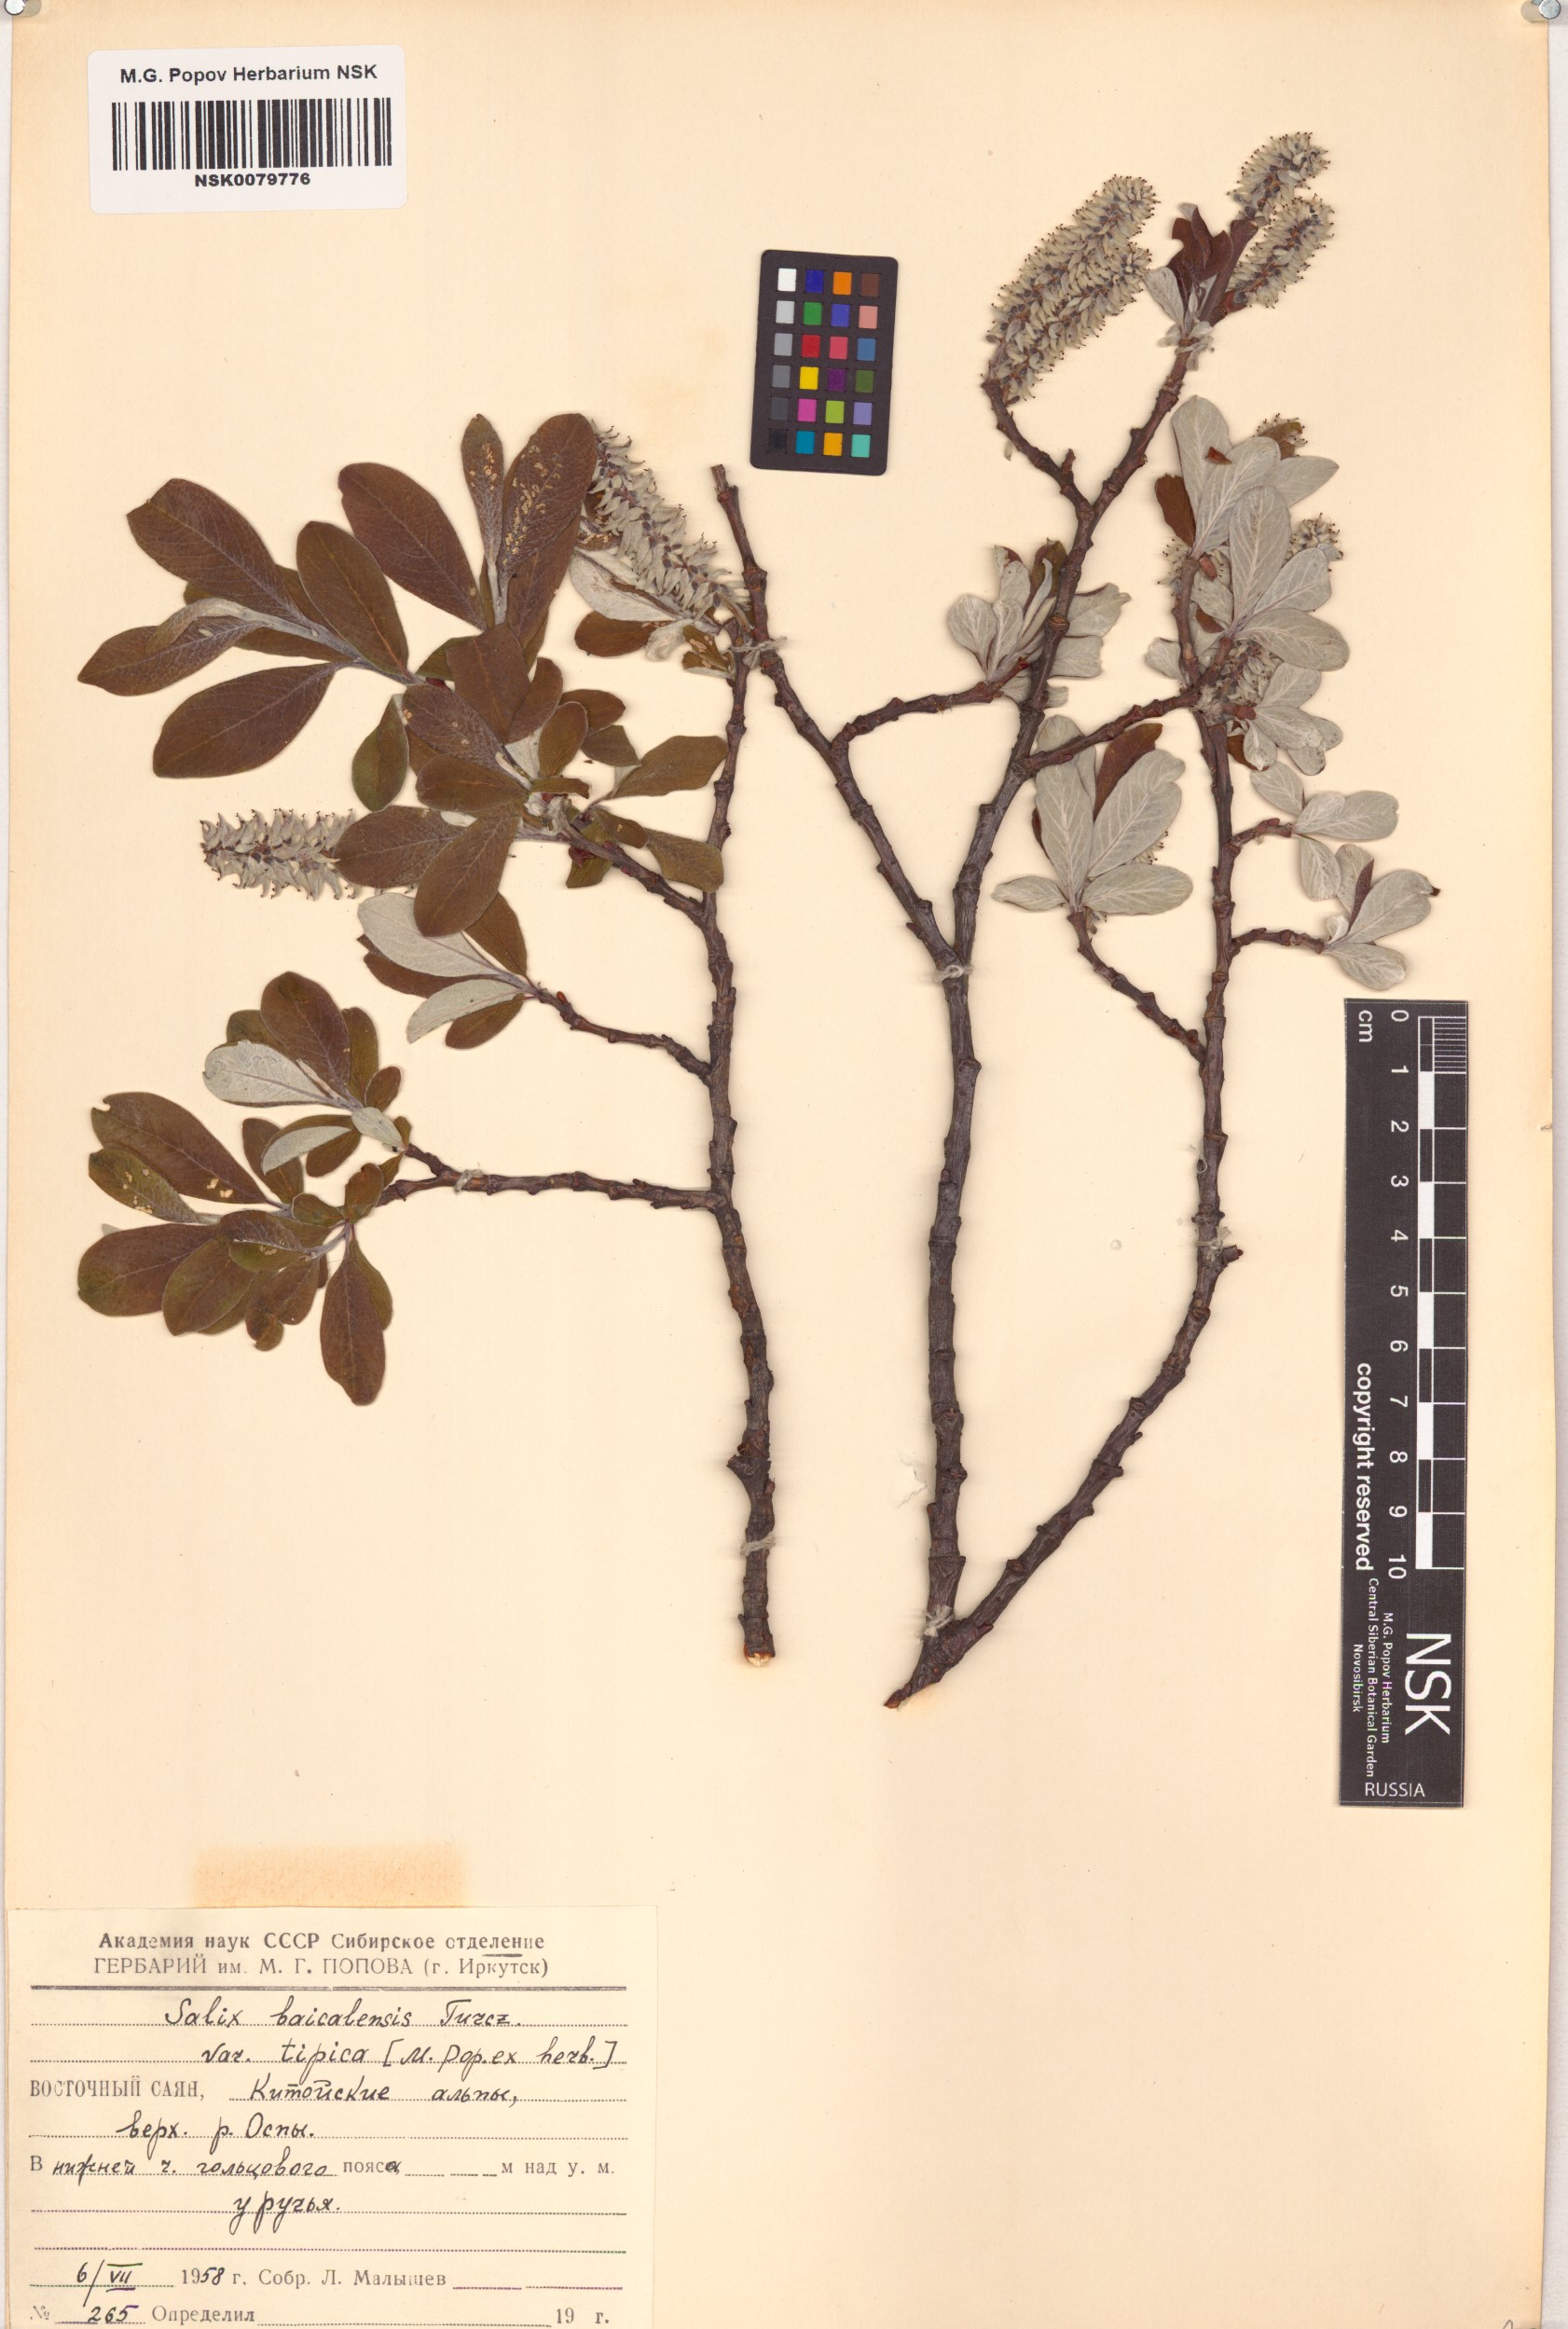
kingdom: Plantae
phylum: Tracheophyta
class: Magnoliopsida
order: Malpighiales
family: Salicaceae
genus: Salix
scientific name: Salix krylovii
